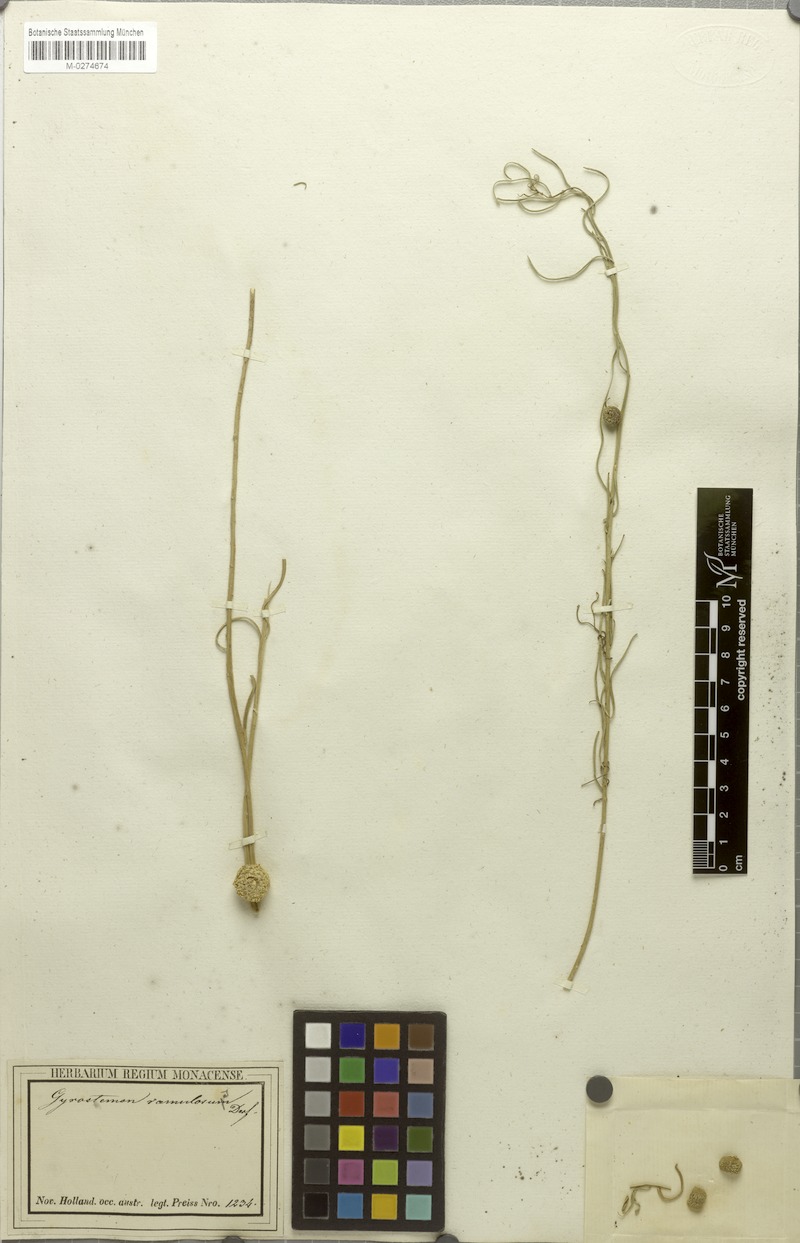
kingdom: Plantae
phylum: Tracheophyta
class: Magnoliopsida
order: Brassicales
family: Gyrostemonaceae
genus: Tersonia
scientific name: Tersonia brevipes
